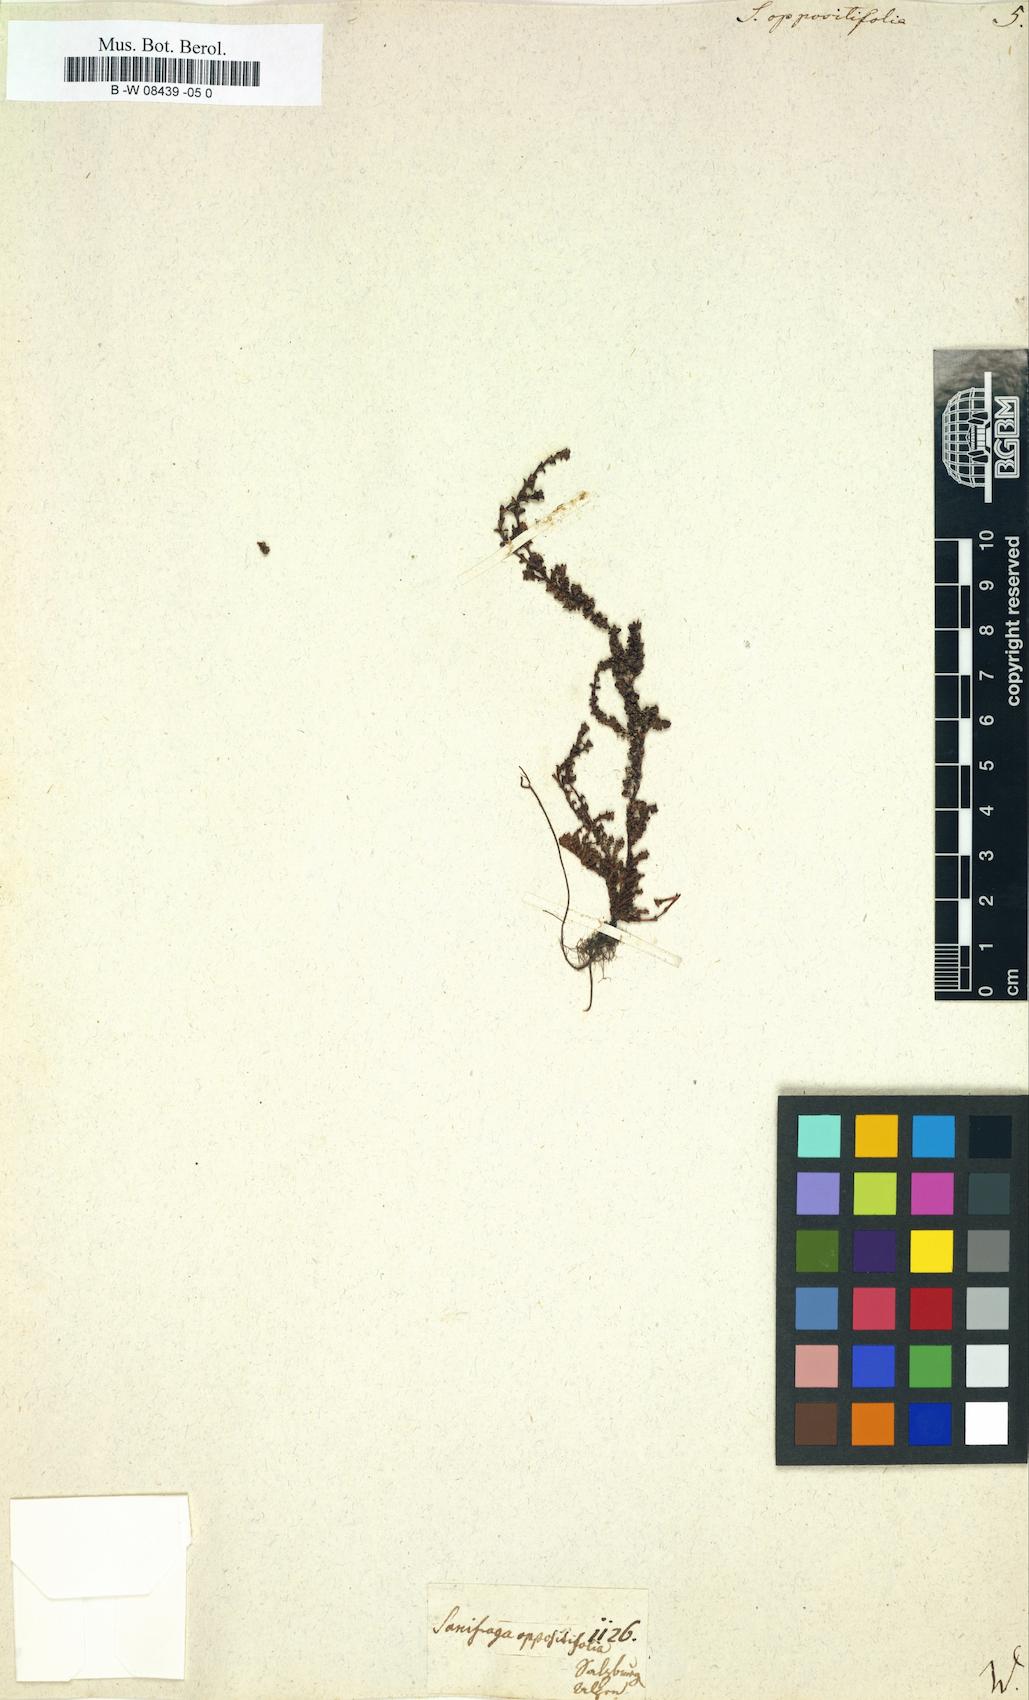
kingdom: Plantae
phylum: Tracheophyta
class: Magnoliopsida
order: Saxifragales
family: Saxifragaceae
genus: Saxifraga
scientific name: Saxifraga oppositifolia
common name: Purple saxifrage
